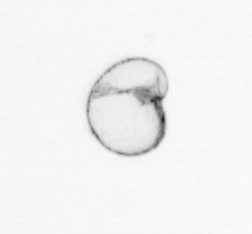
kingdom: Chromista
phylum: Myzozoa
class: Dinophyceae
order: Noctilucales
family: Noctilucaceae
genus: Noctiluca
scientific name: Noctiluca scintillans
